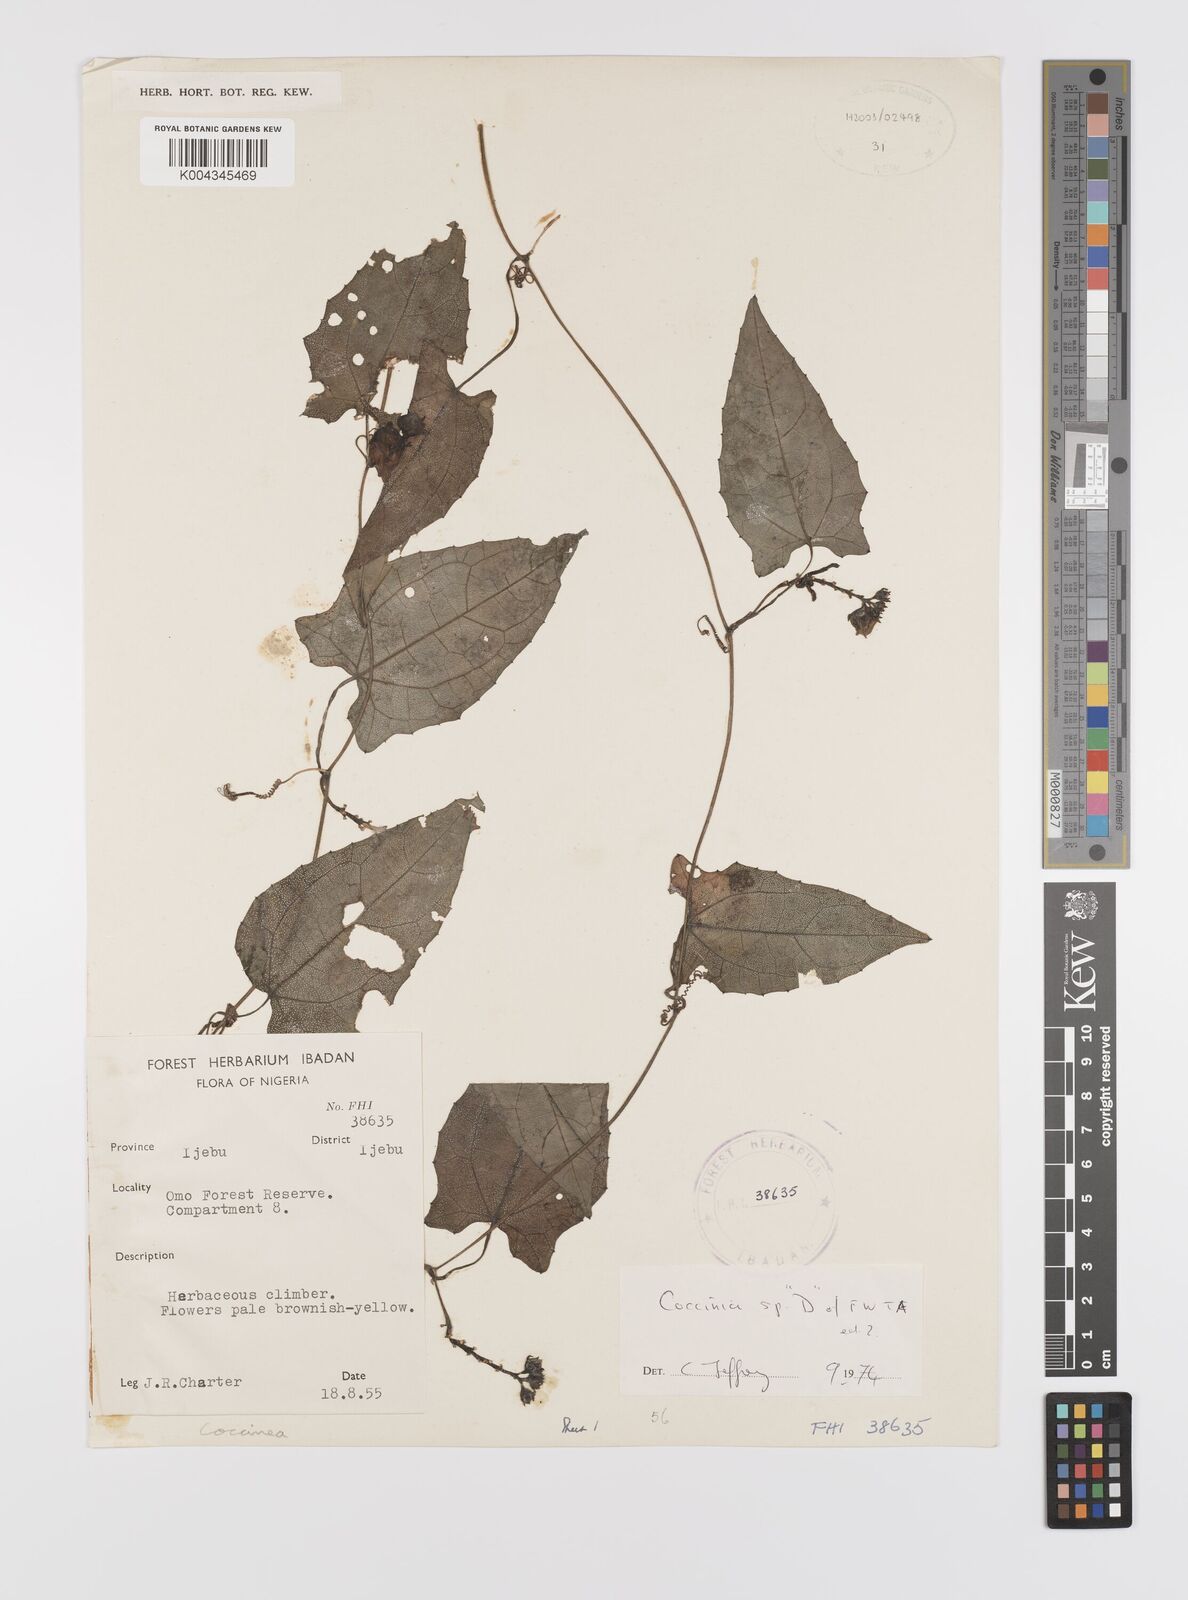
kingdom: Plantae
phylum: Tracheophyta
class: Magnoliopsida
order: Cucurbitales
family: Cucurbitaceae
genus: Coccinia
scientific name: Coccinia
